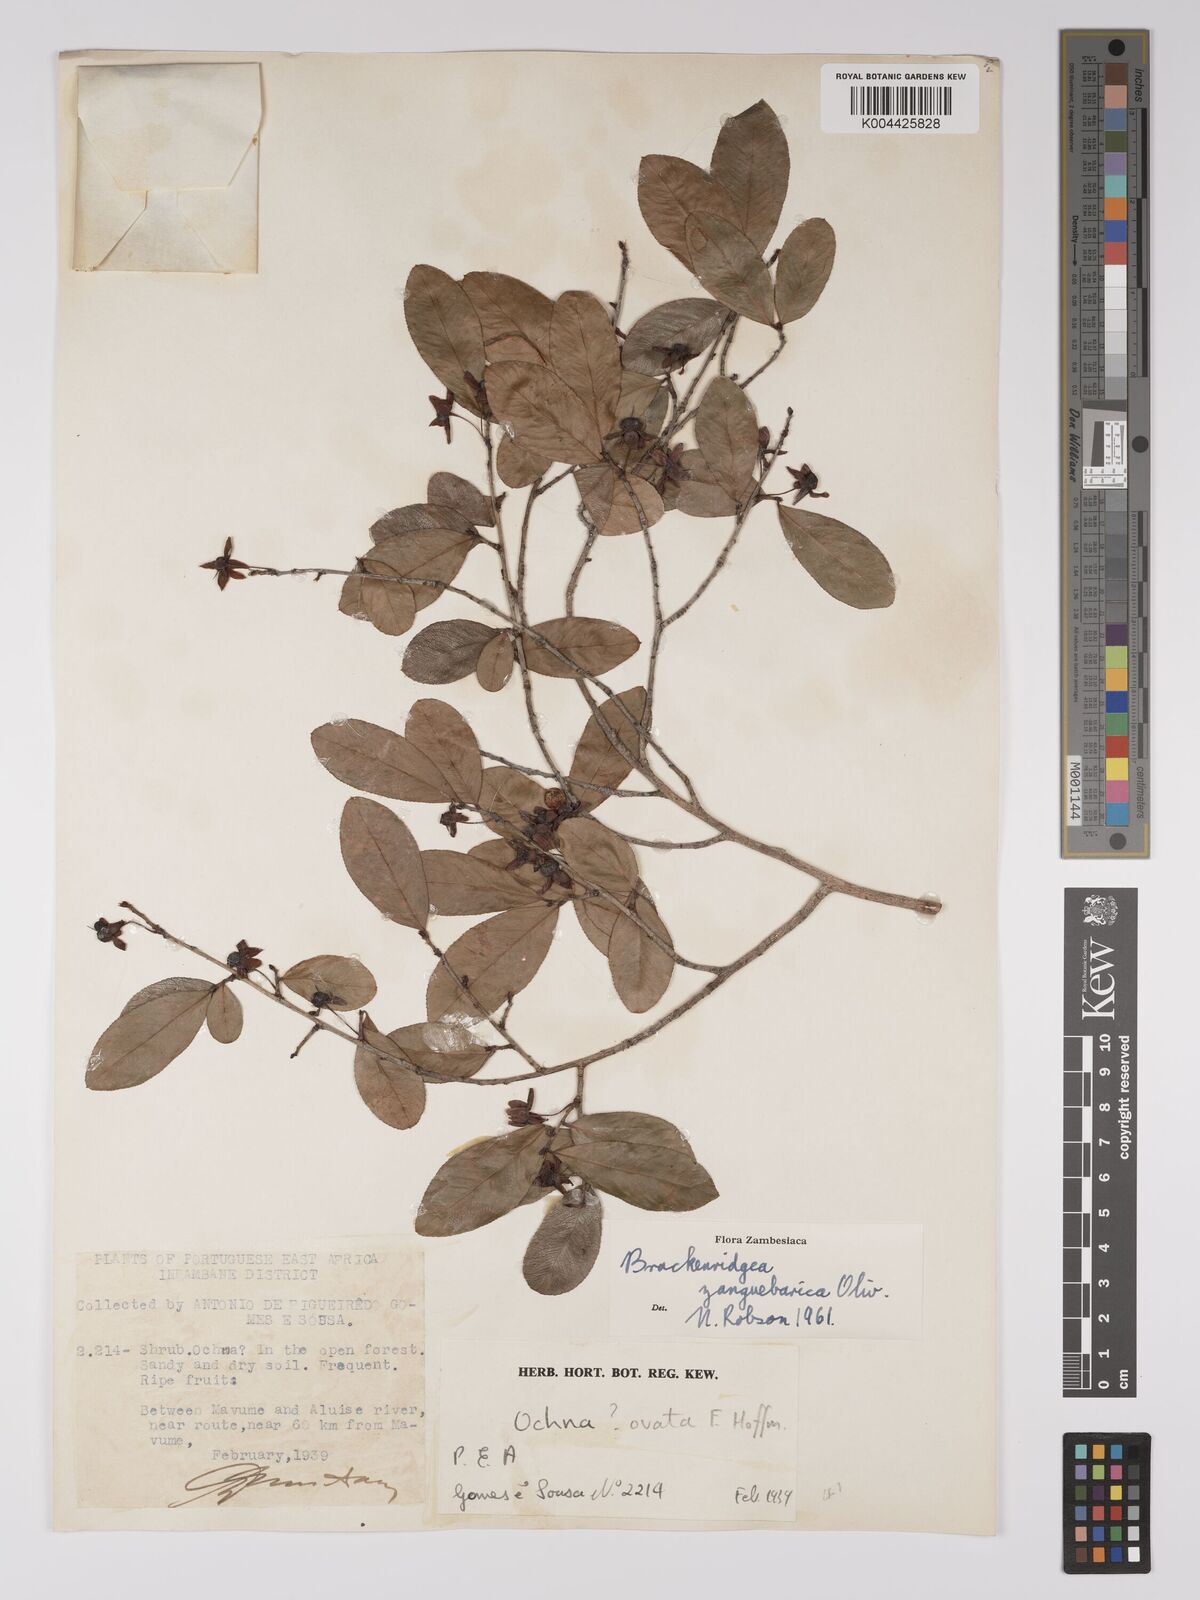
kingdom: Plantae
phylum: Tracheophyta
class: Magnoliopsida
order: Malpighiales
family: Ochnaceae
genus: Brackenridgea
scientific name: Brackenridgea zanguebarica
